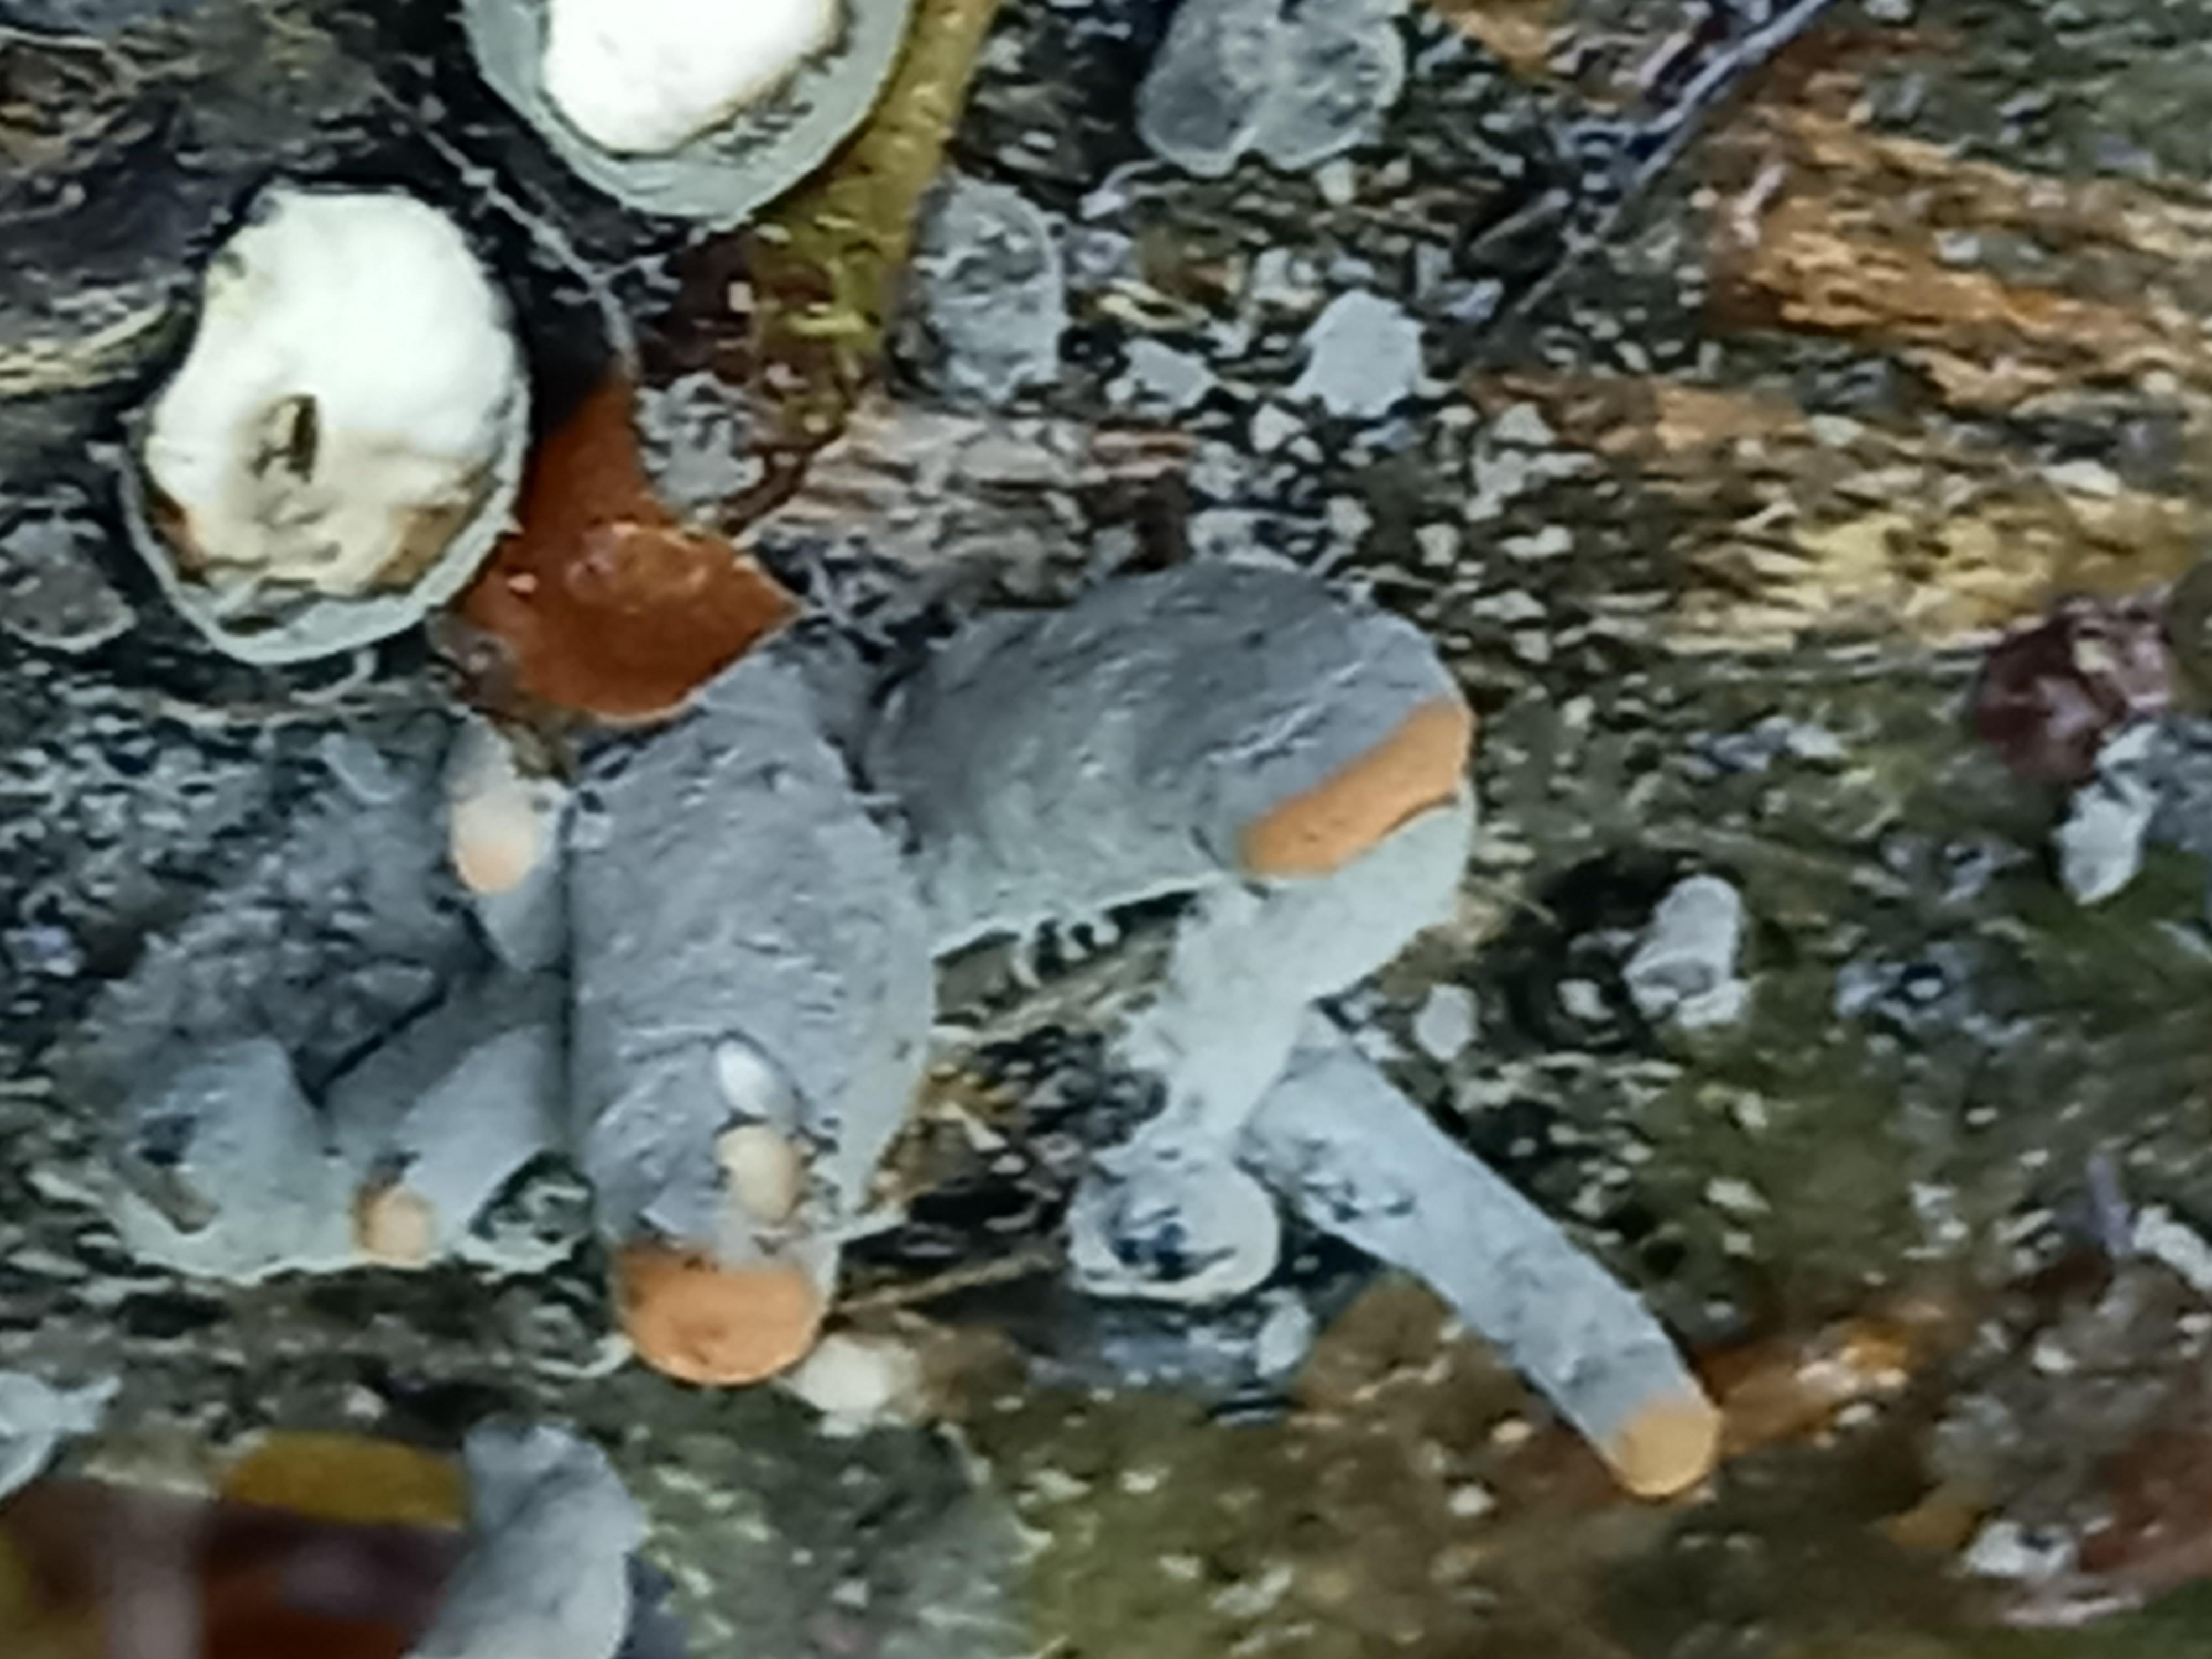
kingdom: Fungi
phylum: Ascomycota
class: Sordariomycetes
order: Xylariales
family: Xylariaceae
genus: Xylaria
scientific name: Xylaria longipes
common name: slank stødsvamp
